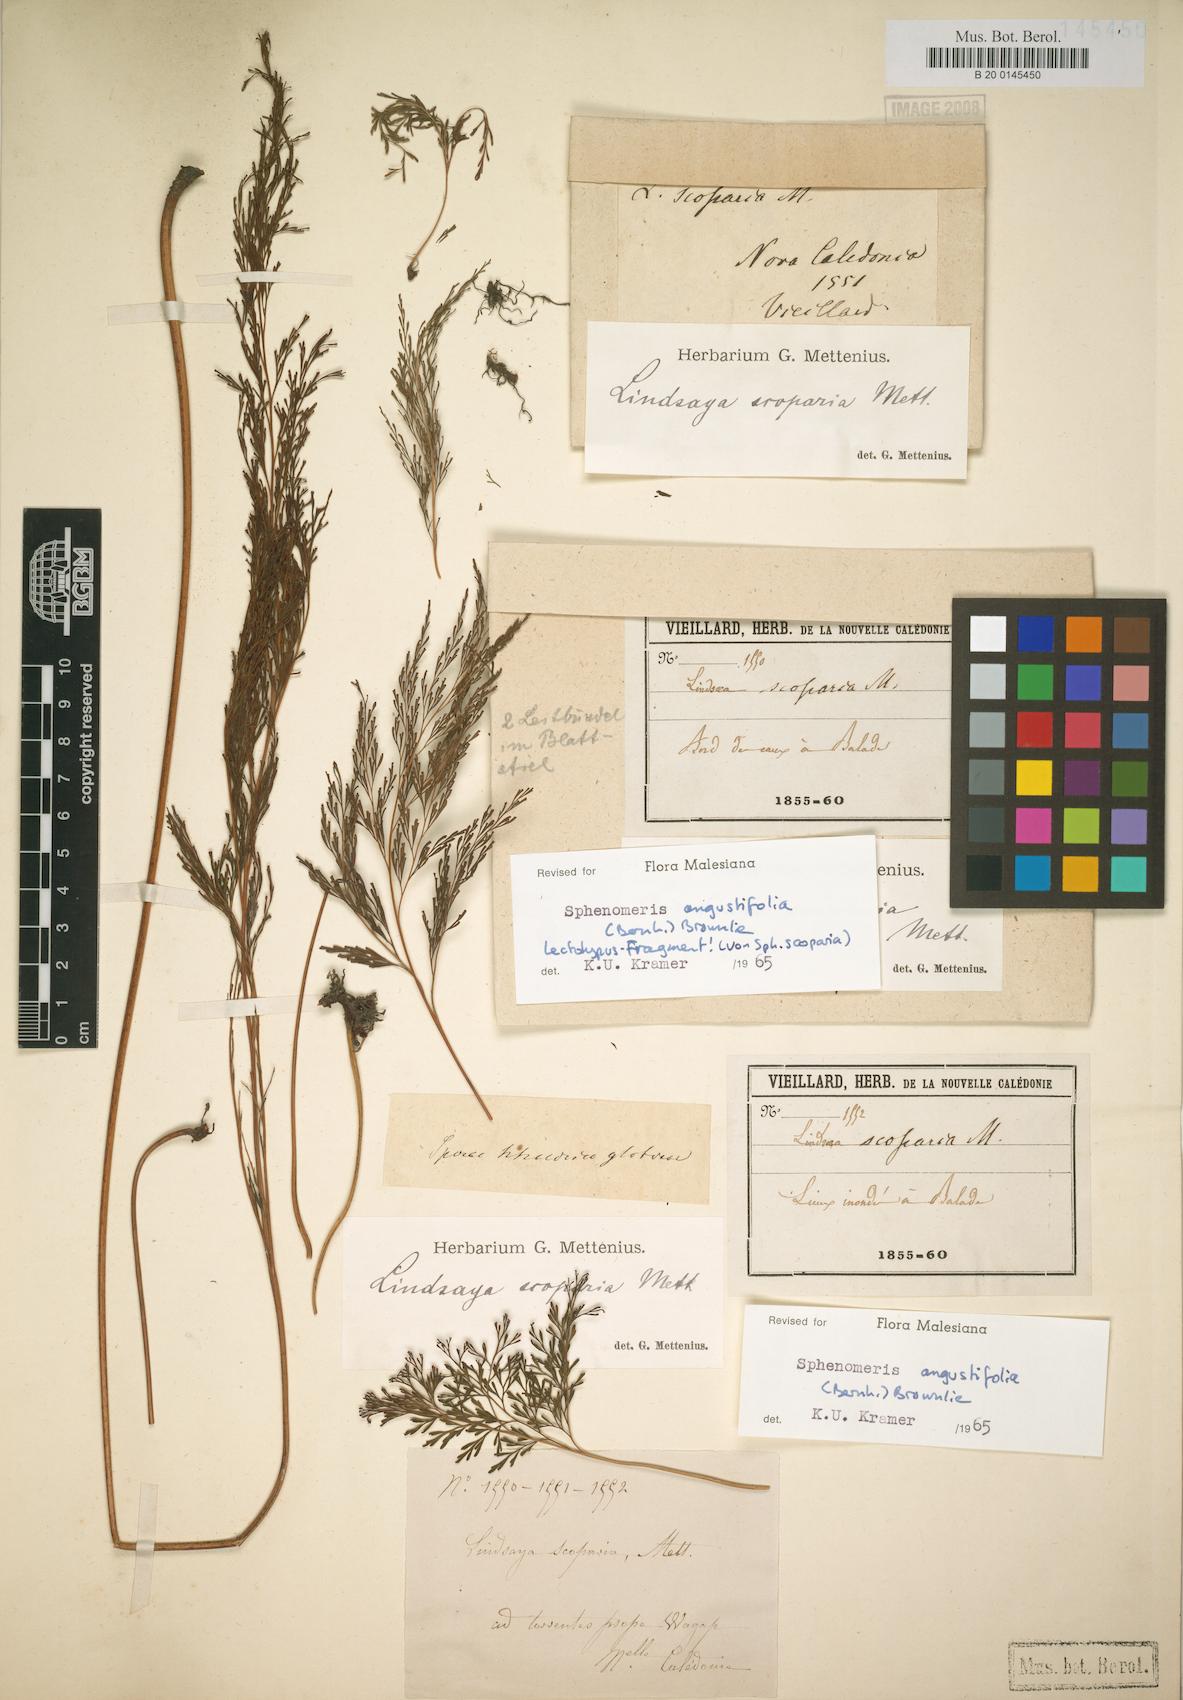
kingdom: Plantae
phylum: Tracheophyta
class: Polypodiopsida
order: Polypodiales
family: Lindsaeaceae
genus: Odontosoria
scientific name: Odontosoria angustifolia
